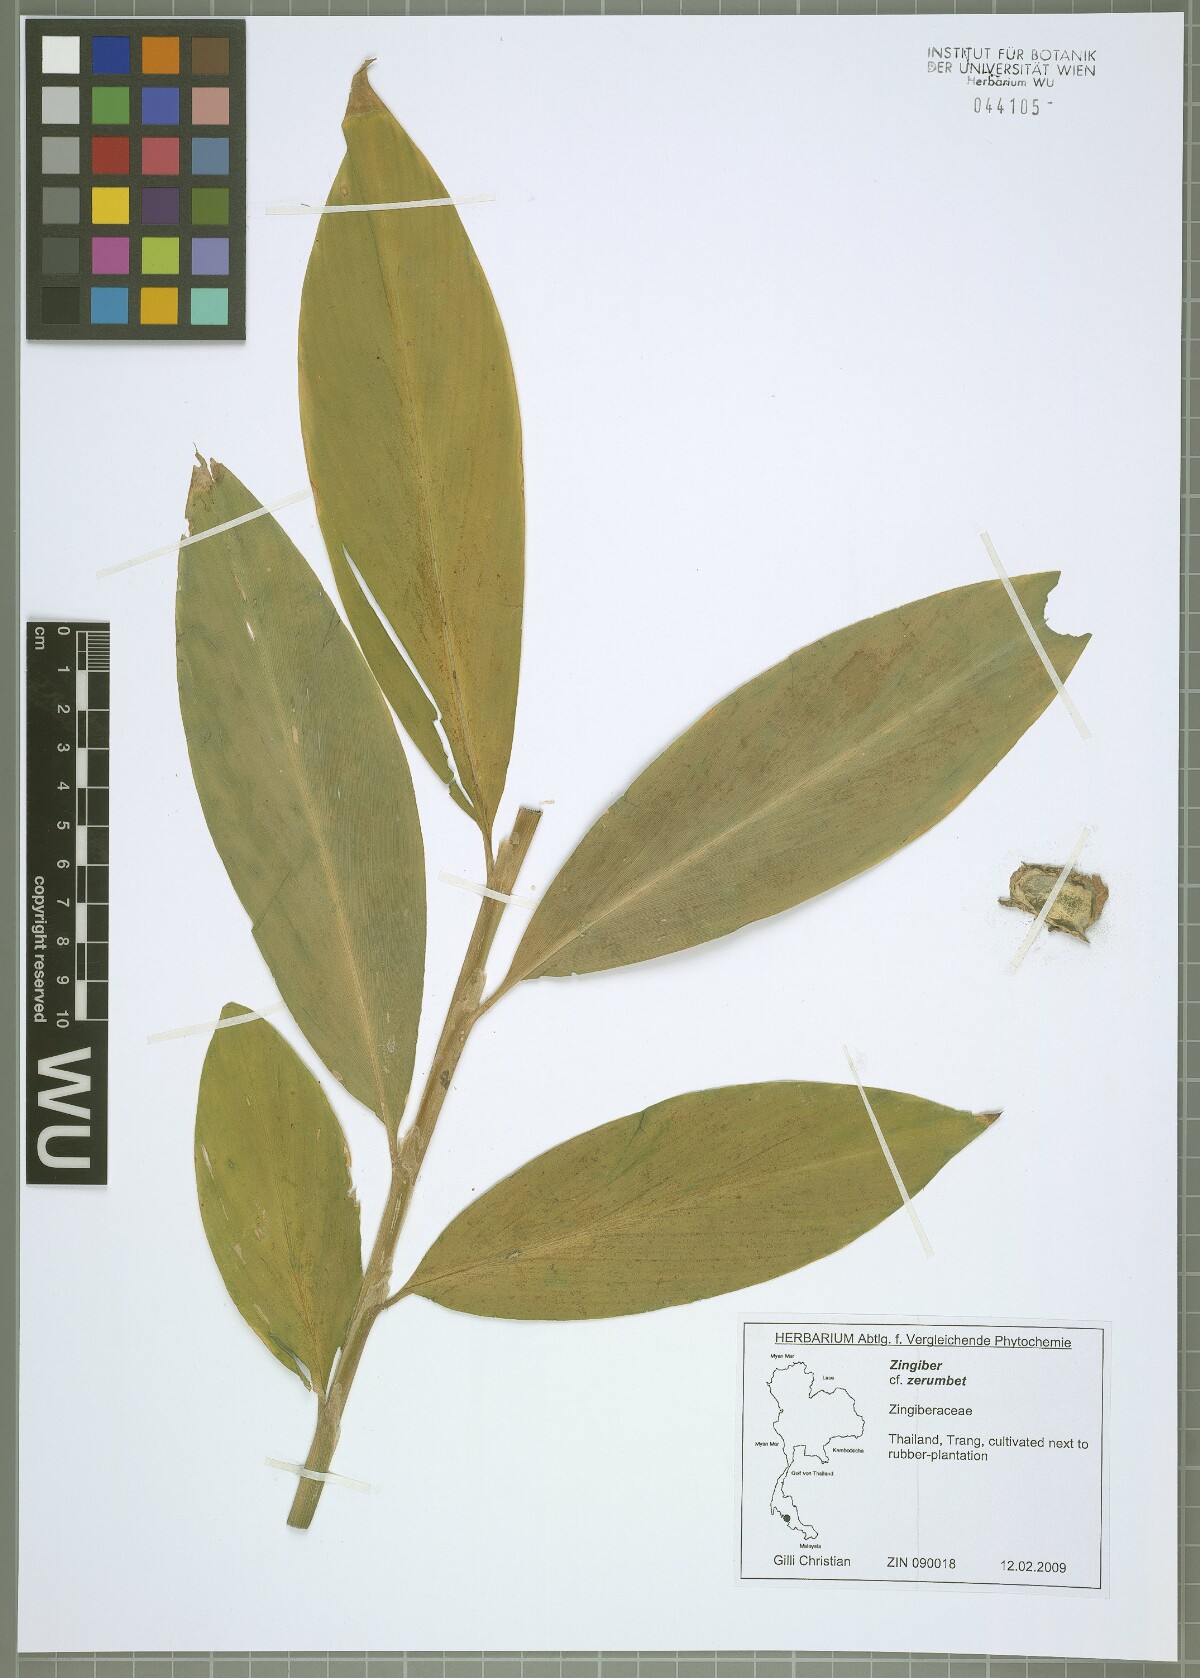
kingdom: Plantae
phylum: Tracheophyta
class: Liliopsida
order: Zingiberales
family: Zingiberaceae
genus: Zingiber
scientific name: Zingiber zerumbet
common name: Bitter ginger
